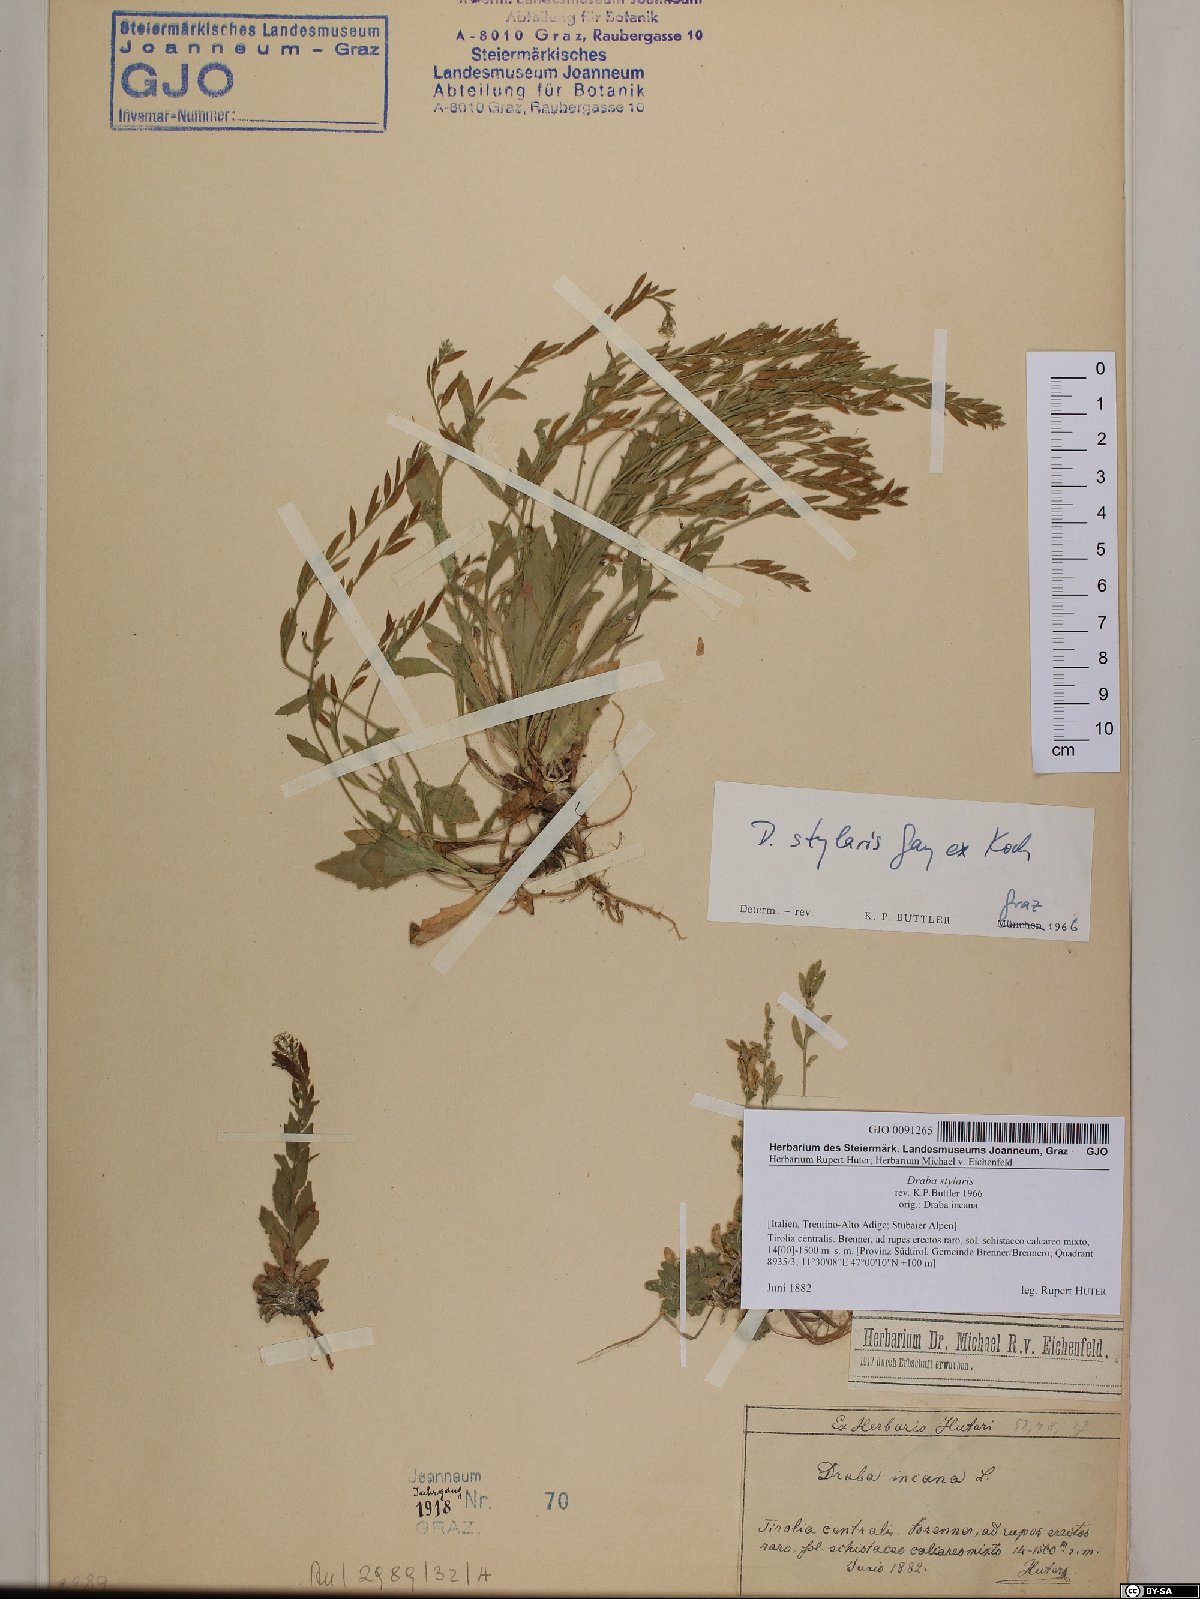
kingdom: Plantae
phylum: Tracheophyta
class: Magnoliopsida
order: Brassicales
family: Brassicaceae
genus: Draba
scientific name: Draba thomasii
